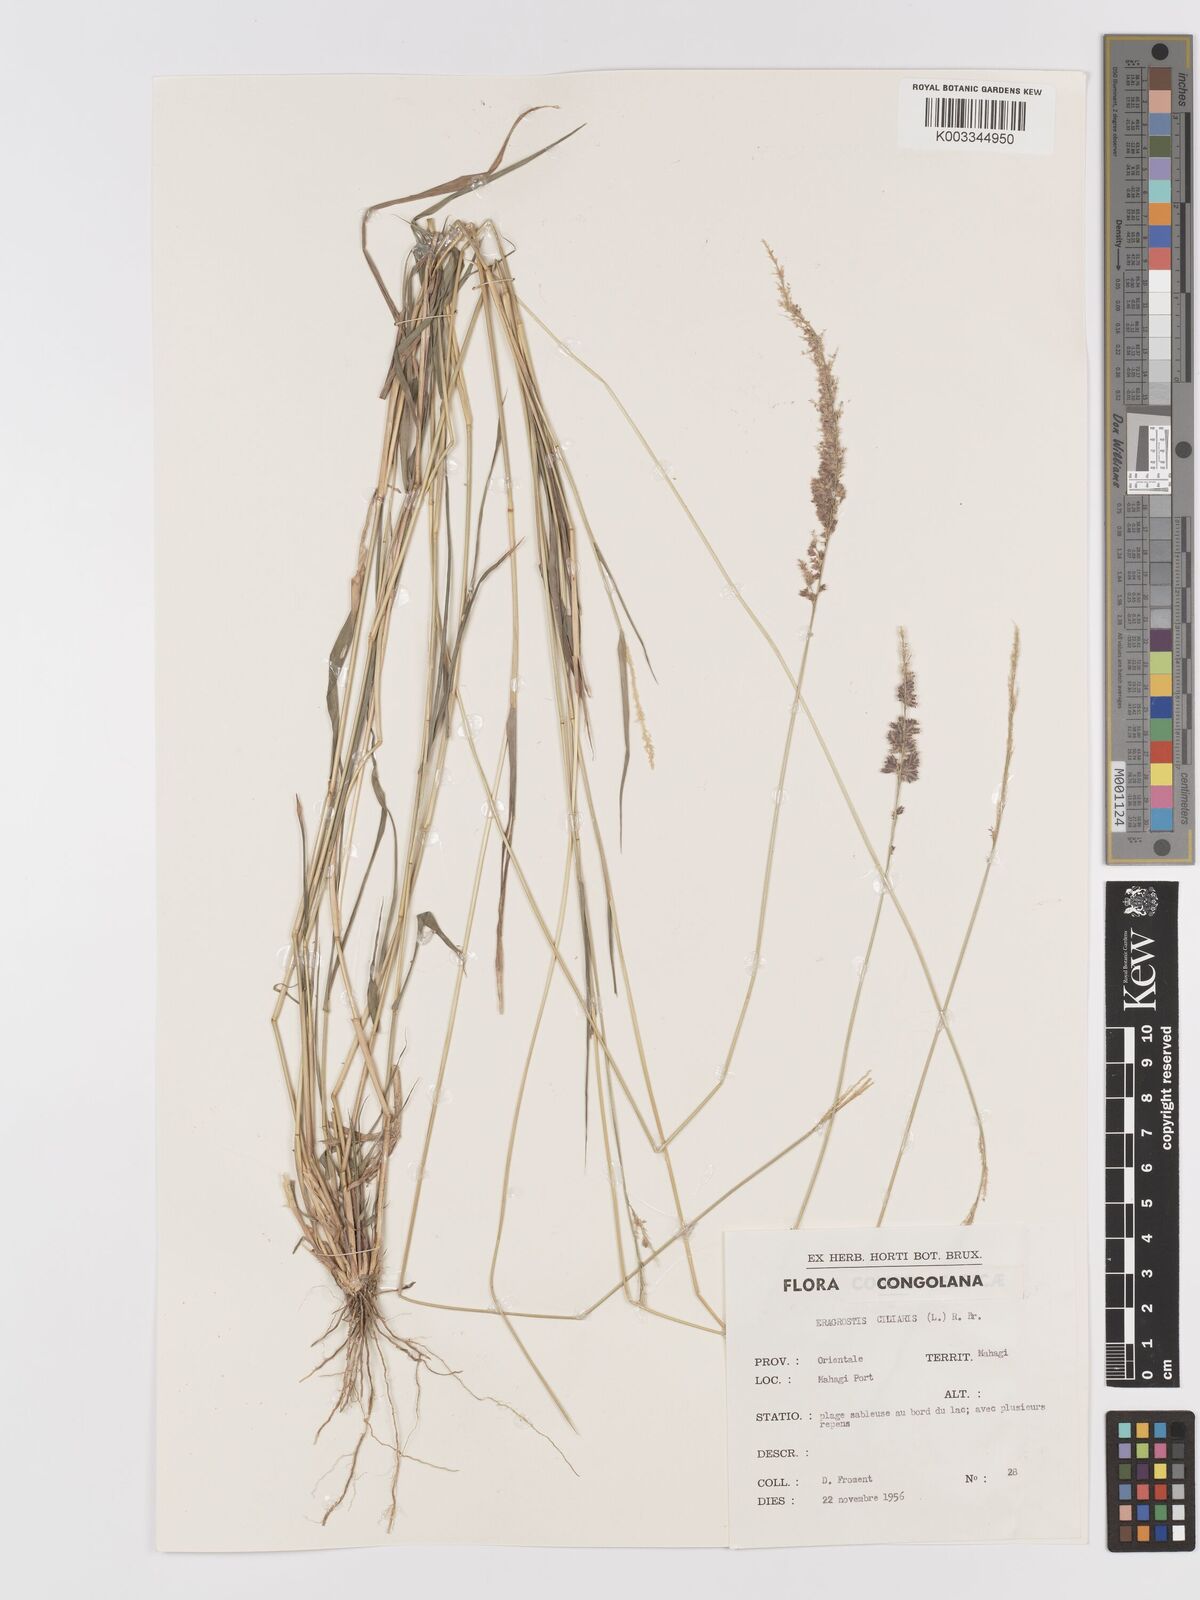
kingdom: Plantae
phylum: Tracheophyta
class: Liliopsida
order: Poales
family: Poaceae
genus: Eragrostis
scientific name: Eragrostis ciliaris
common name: Gophertail lovegrass
